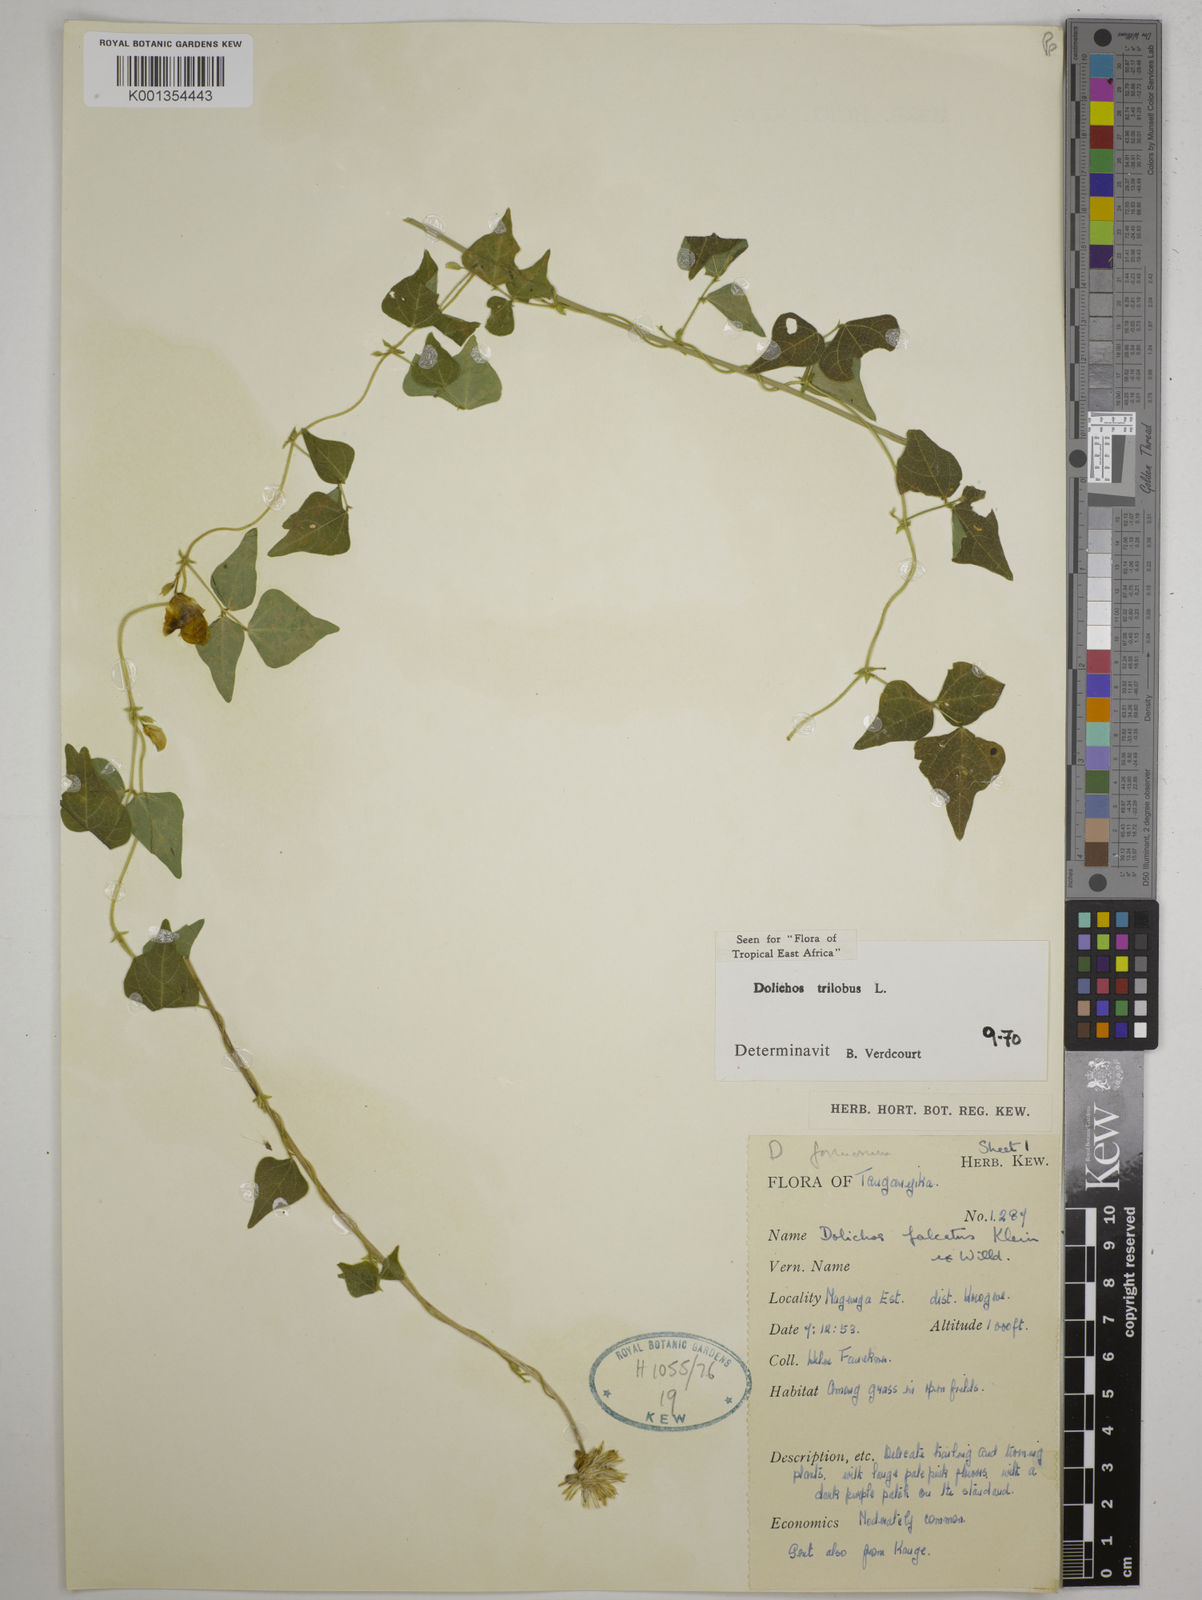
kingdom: Plantae
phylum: Tracheophyta
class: Magnoliopsida
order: Fabales
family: Fabaceae
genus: Dolichos
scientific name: Dolichos
